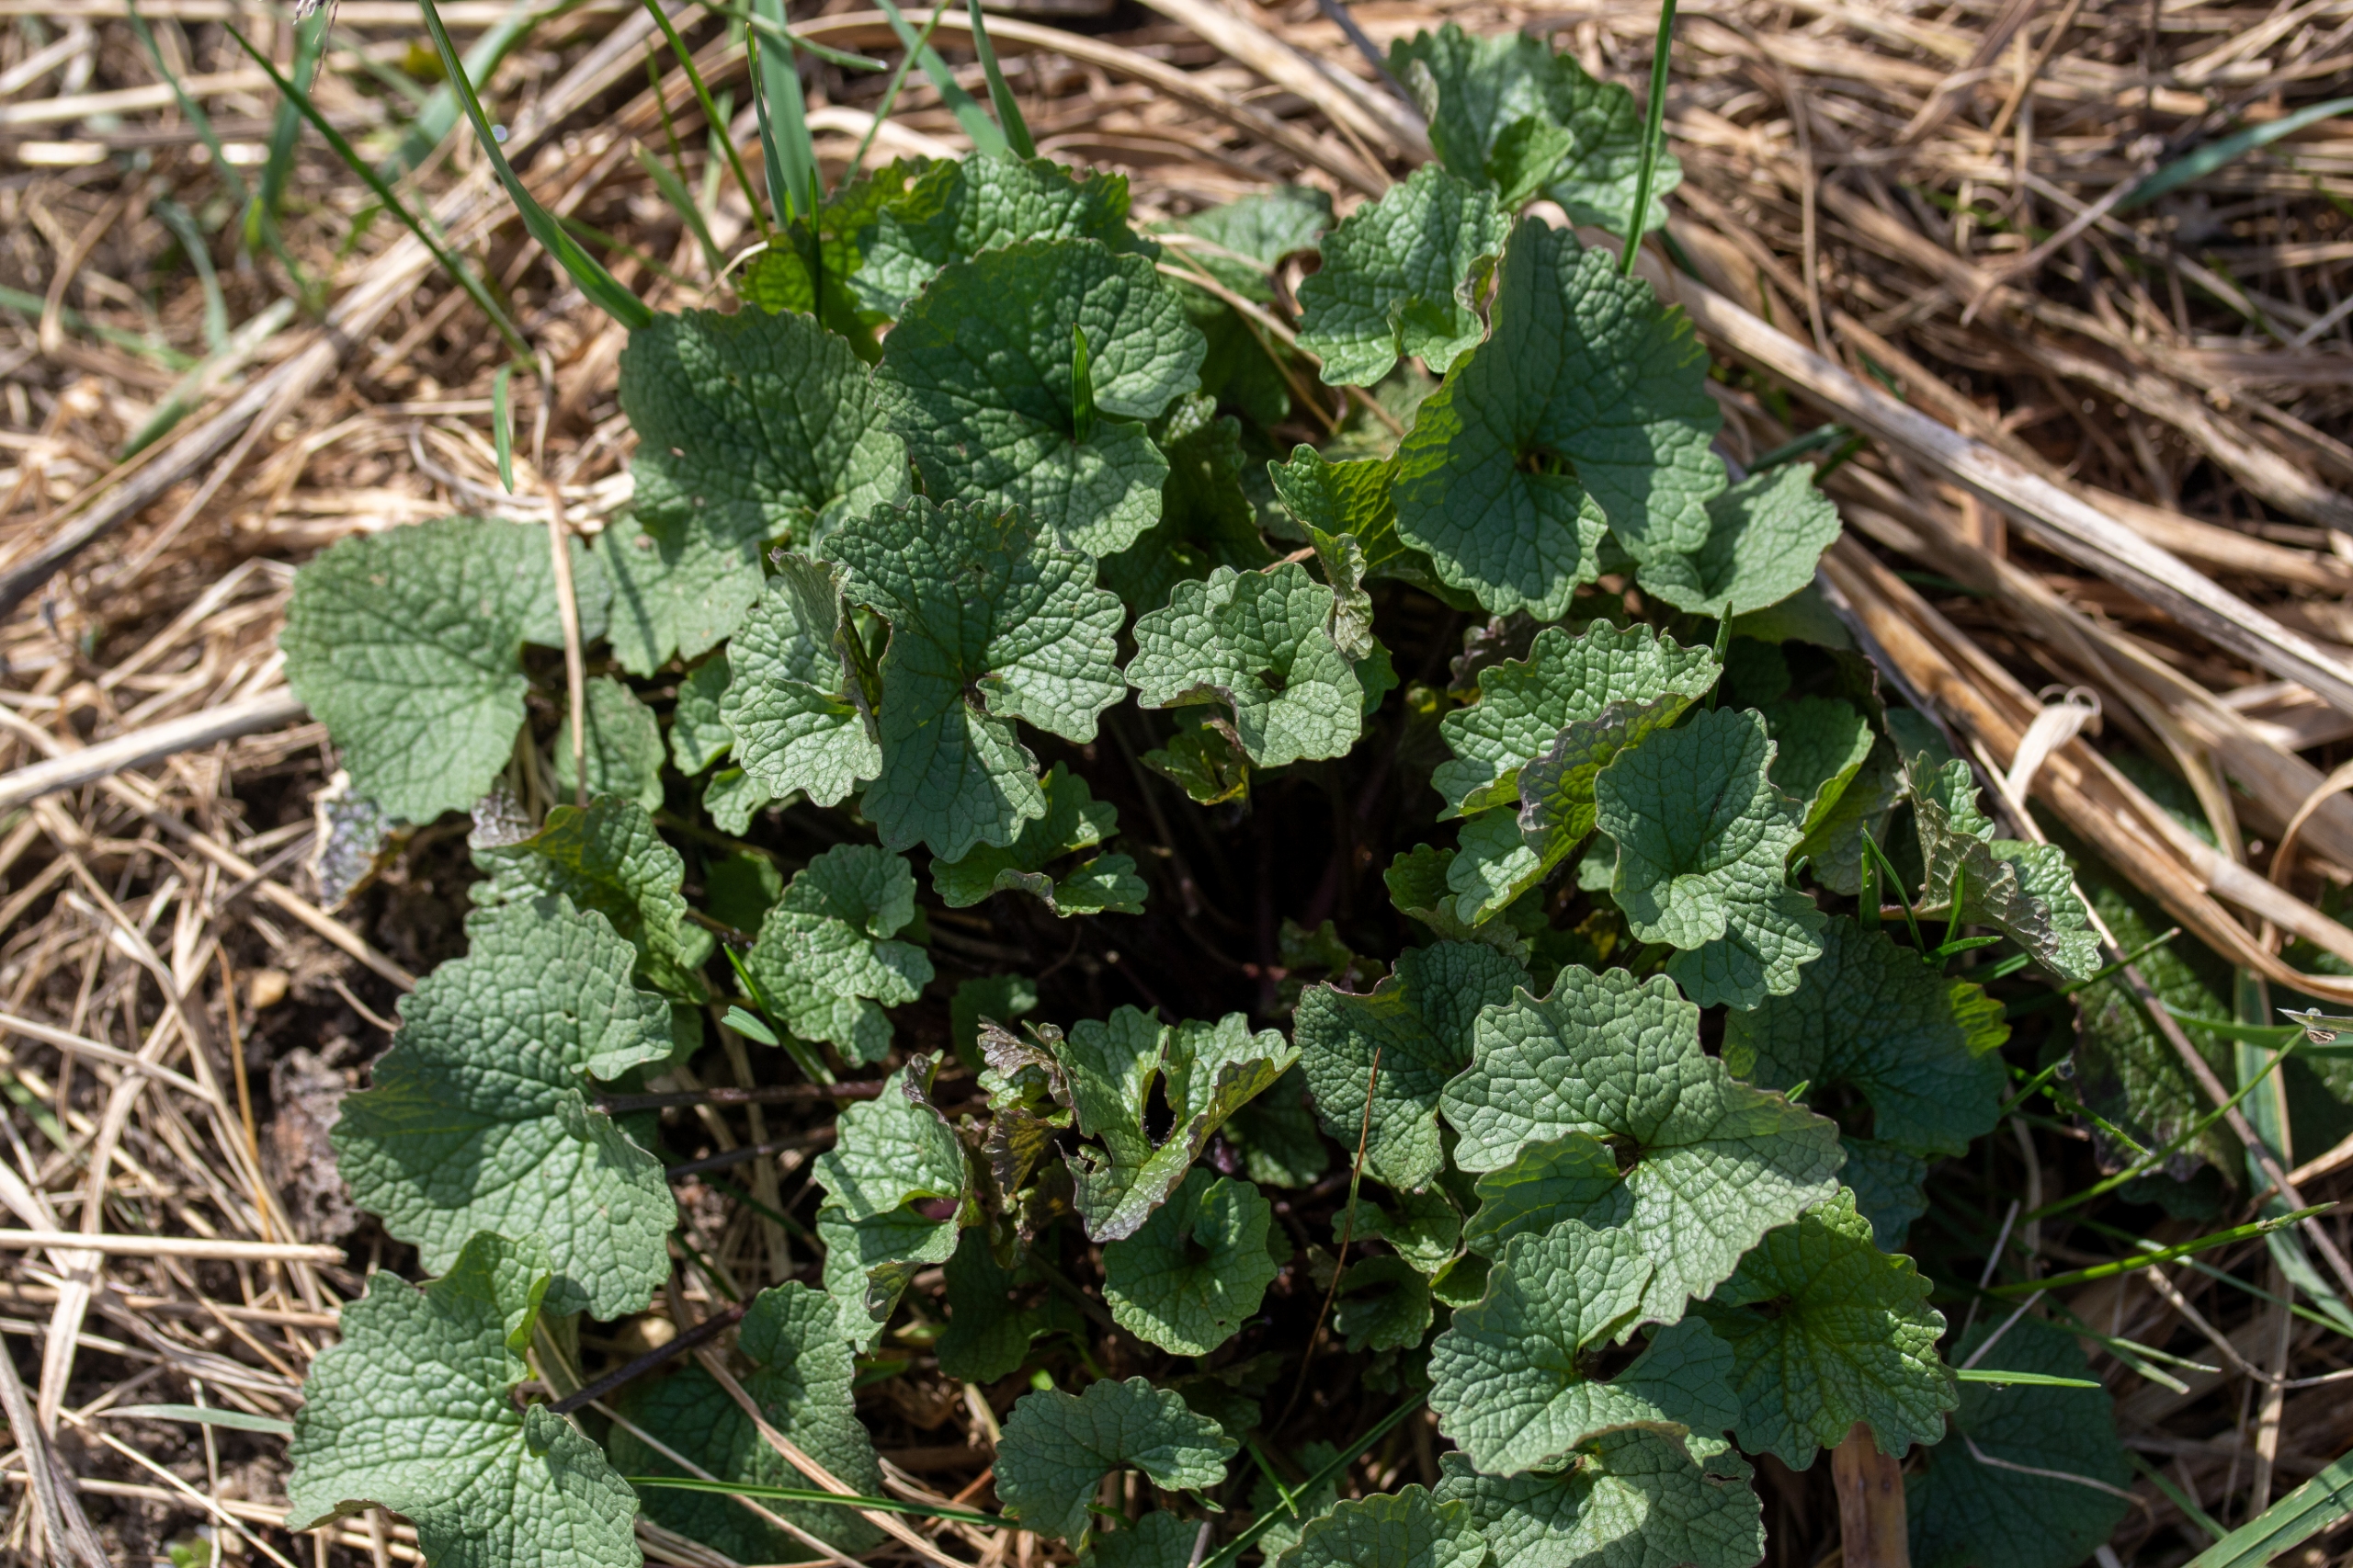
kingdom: Plantae
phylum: Tracheophyta
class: Magnoliopsida
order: Brassicales
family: Brassicaceae
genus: Alliaria
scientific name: Alliaria petiolata
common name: Løgkarse
